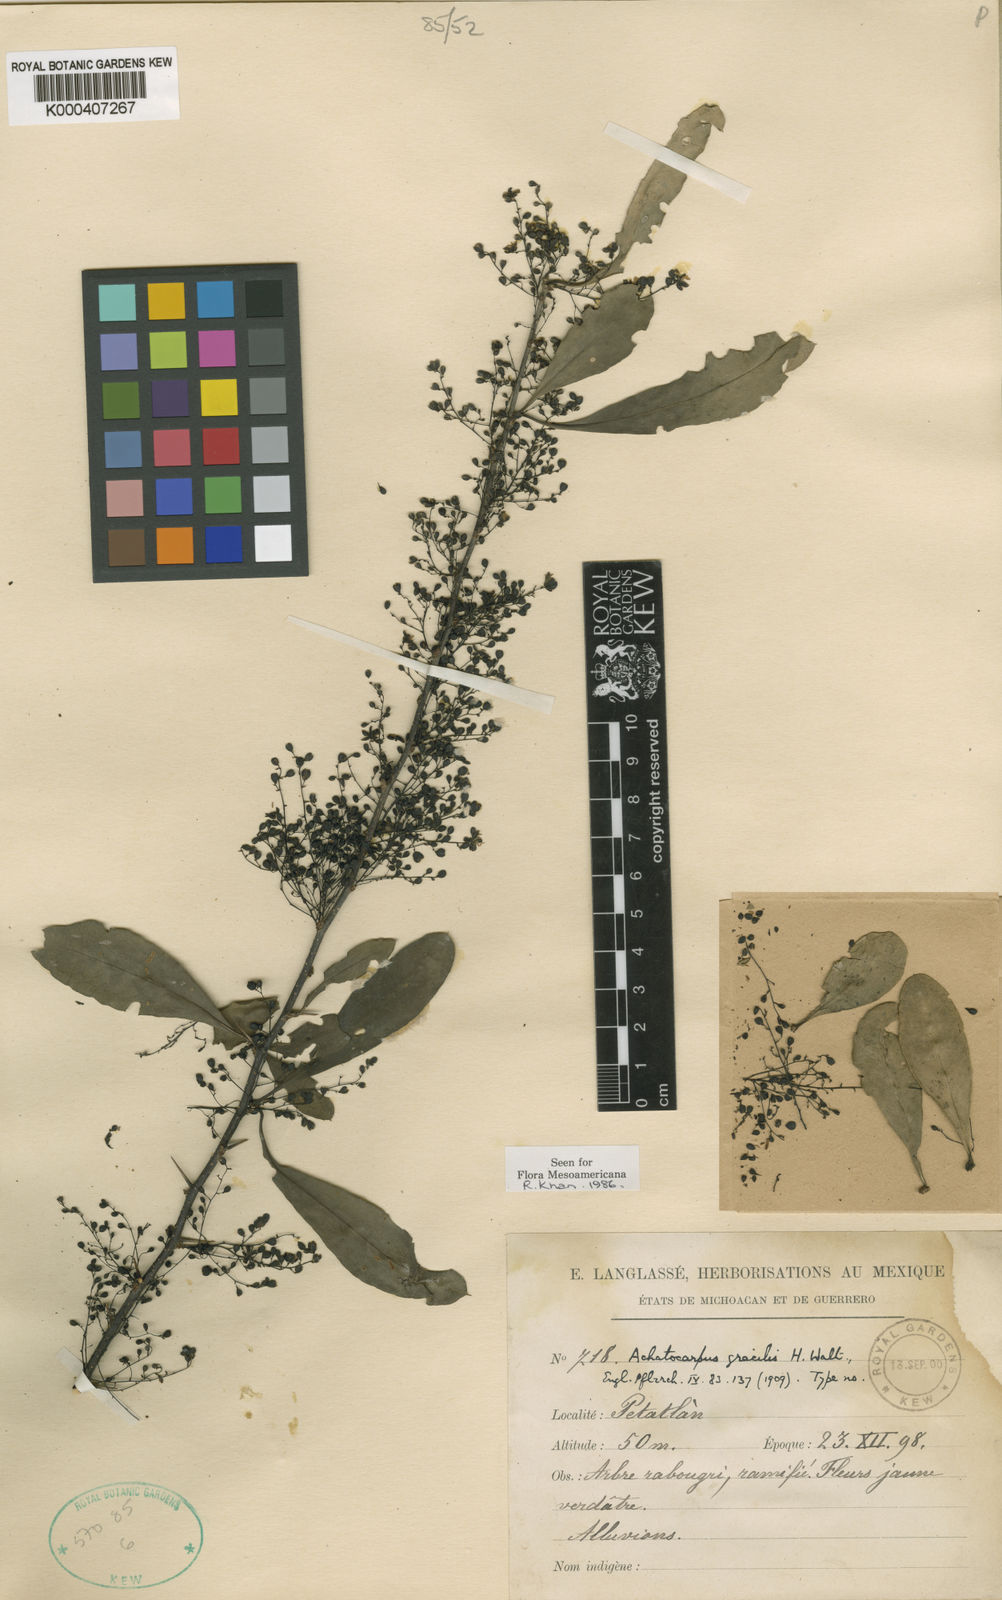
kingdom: Plantae
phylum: Tracheophyta
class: Magnoliopsida
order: Caryophyllales
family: Achatocarpaceae
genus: Achatocarpus
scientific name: Achatocarpus gracilis
